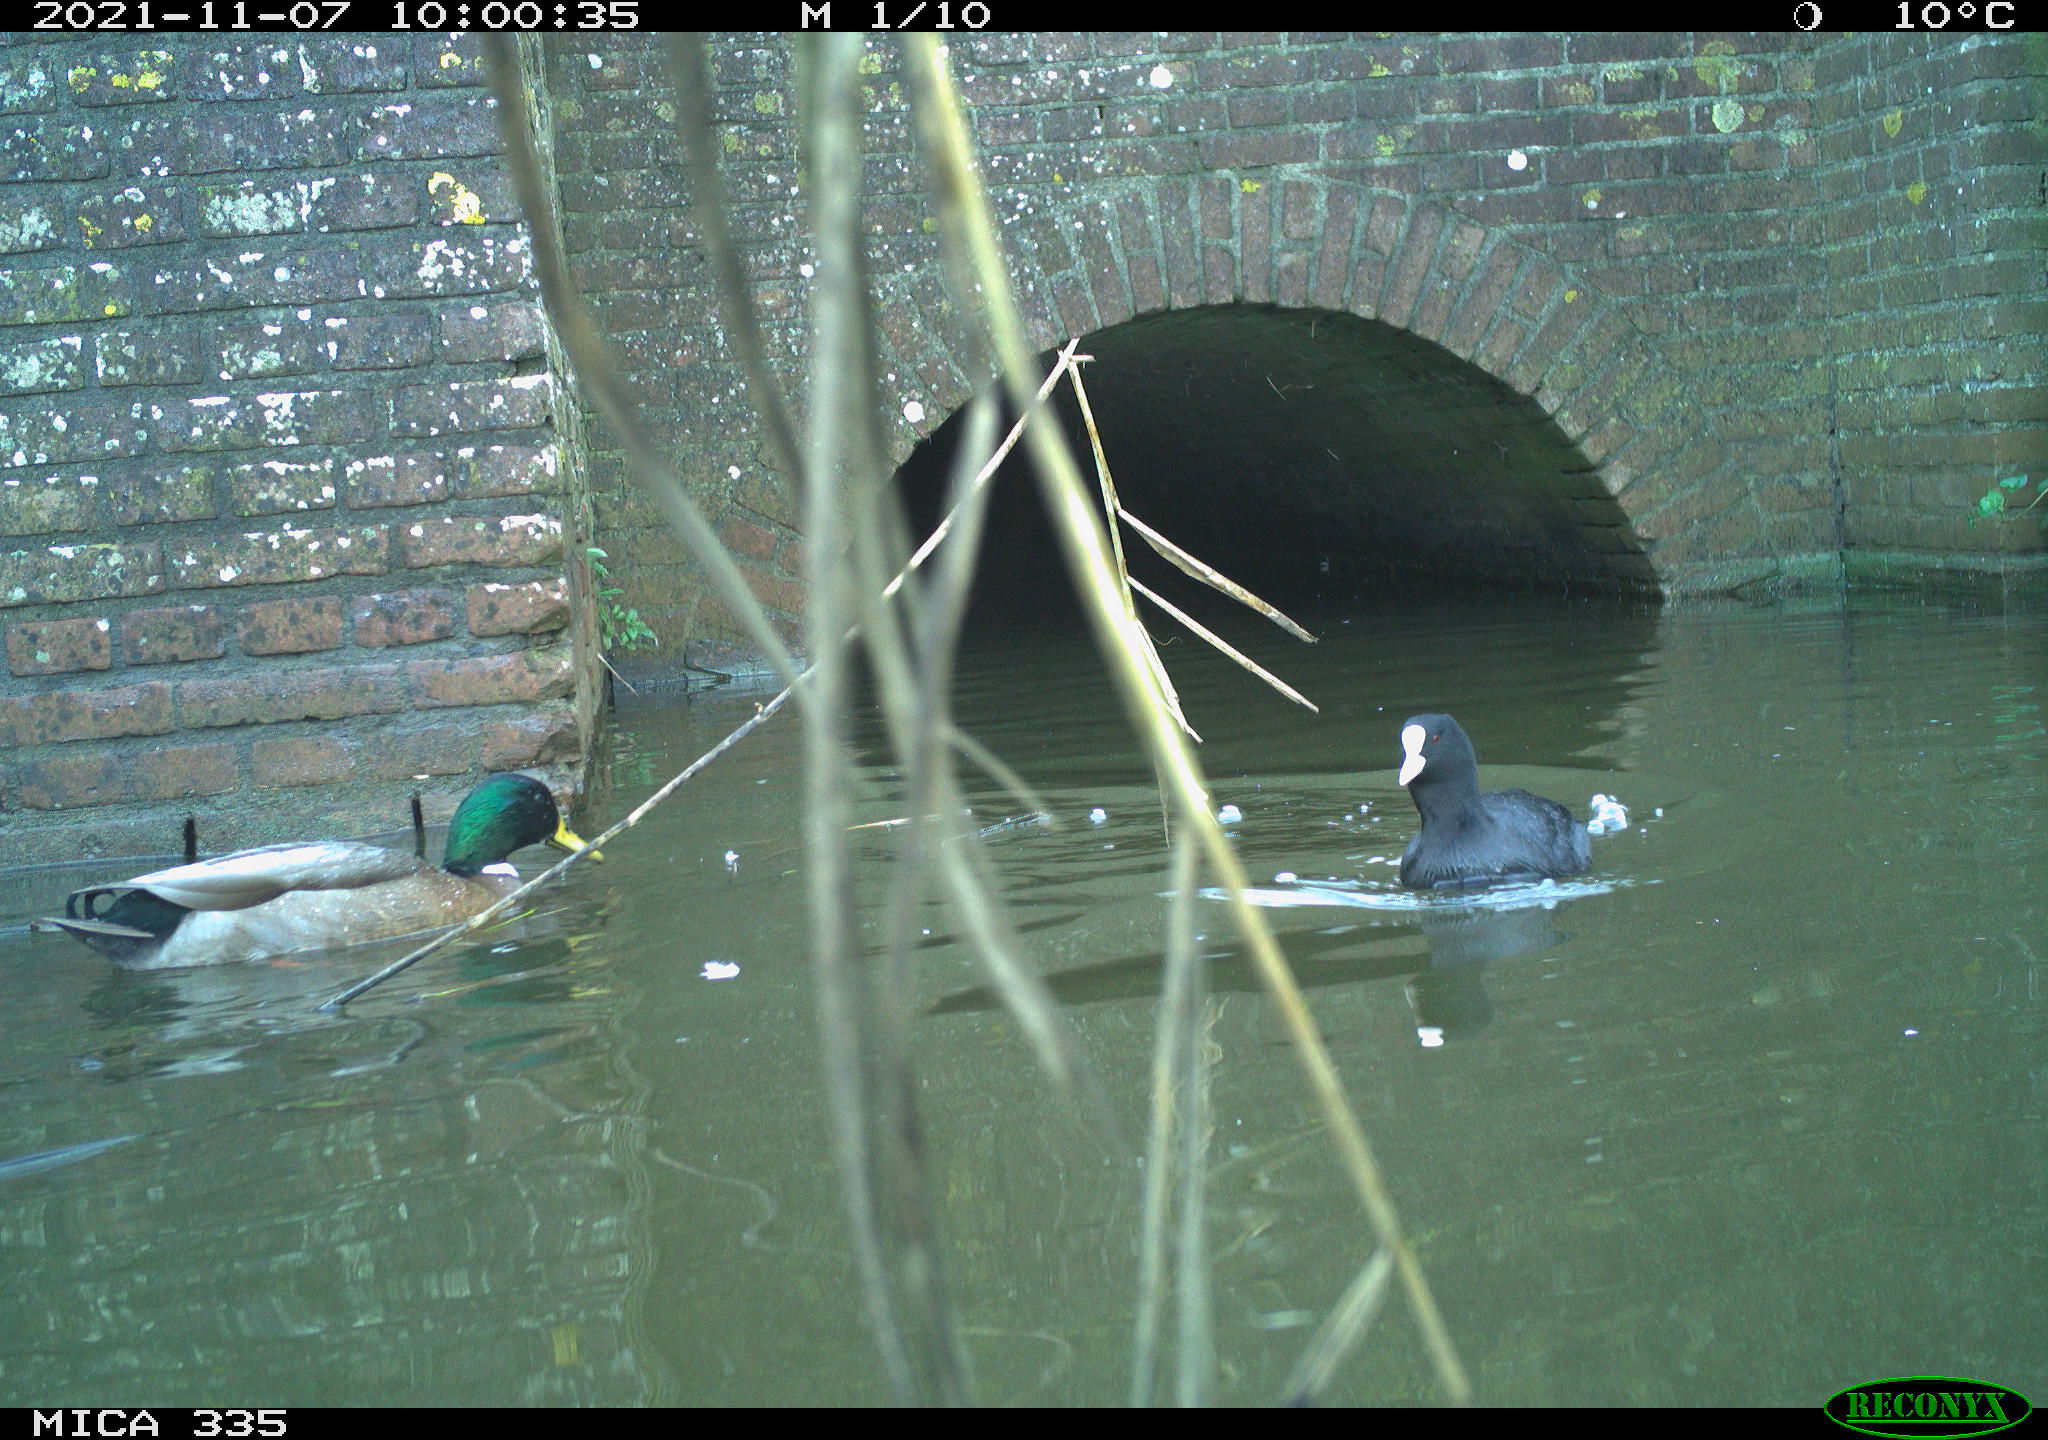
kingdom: Animalia
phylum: Chordata
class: Aves
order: Gruiformes
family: Rallidae
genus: Fulica
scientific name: Fulica atra
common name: Eurasian coot
